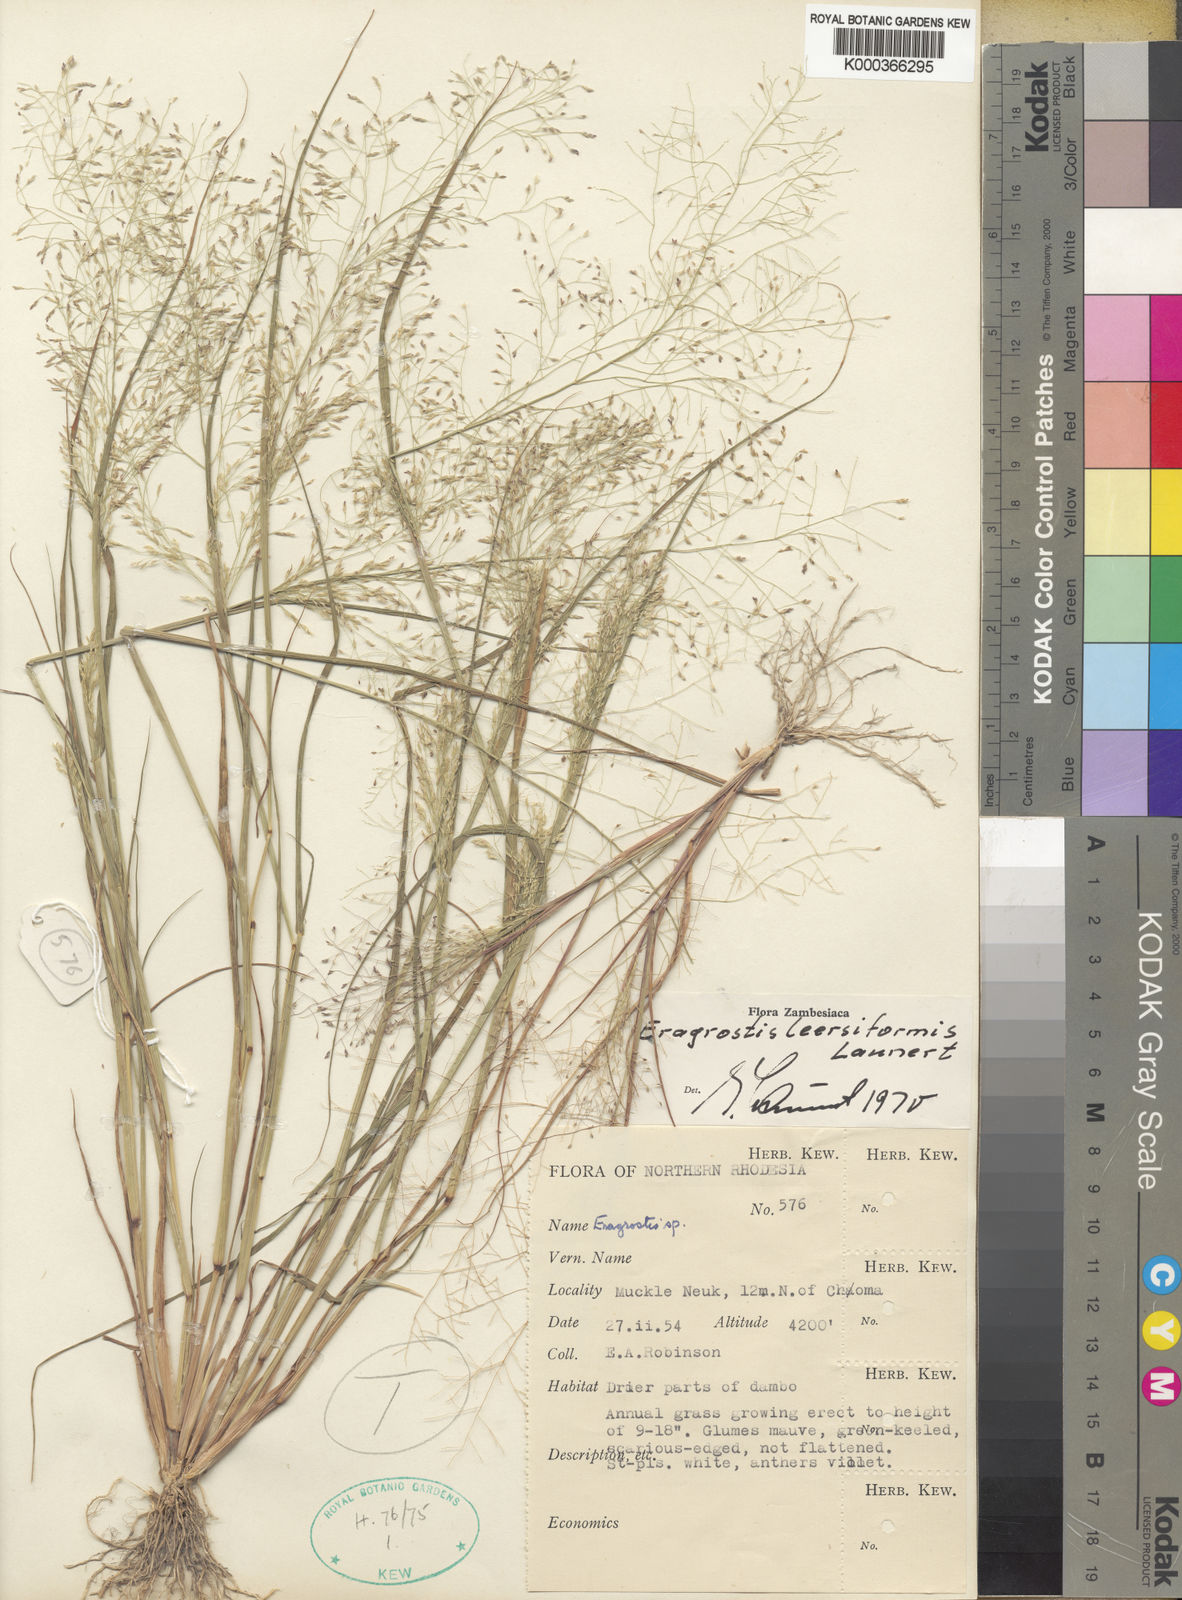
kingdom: Plantae
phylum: Tracheophyta
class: Liliopsida
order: Poales
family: Poaceae
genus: Eragrostis
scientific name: Eragrostis leersiiformis
